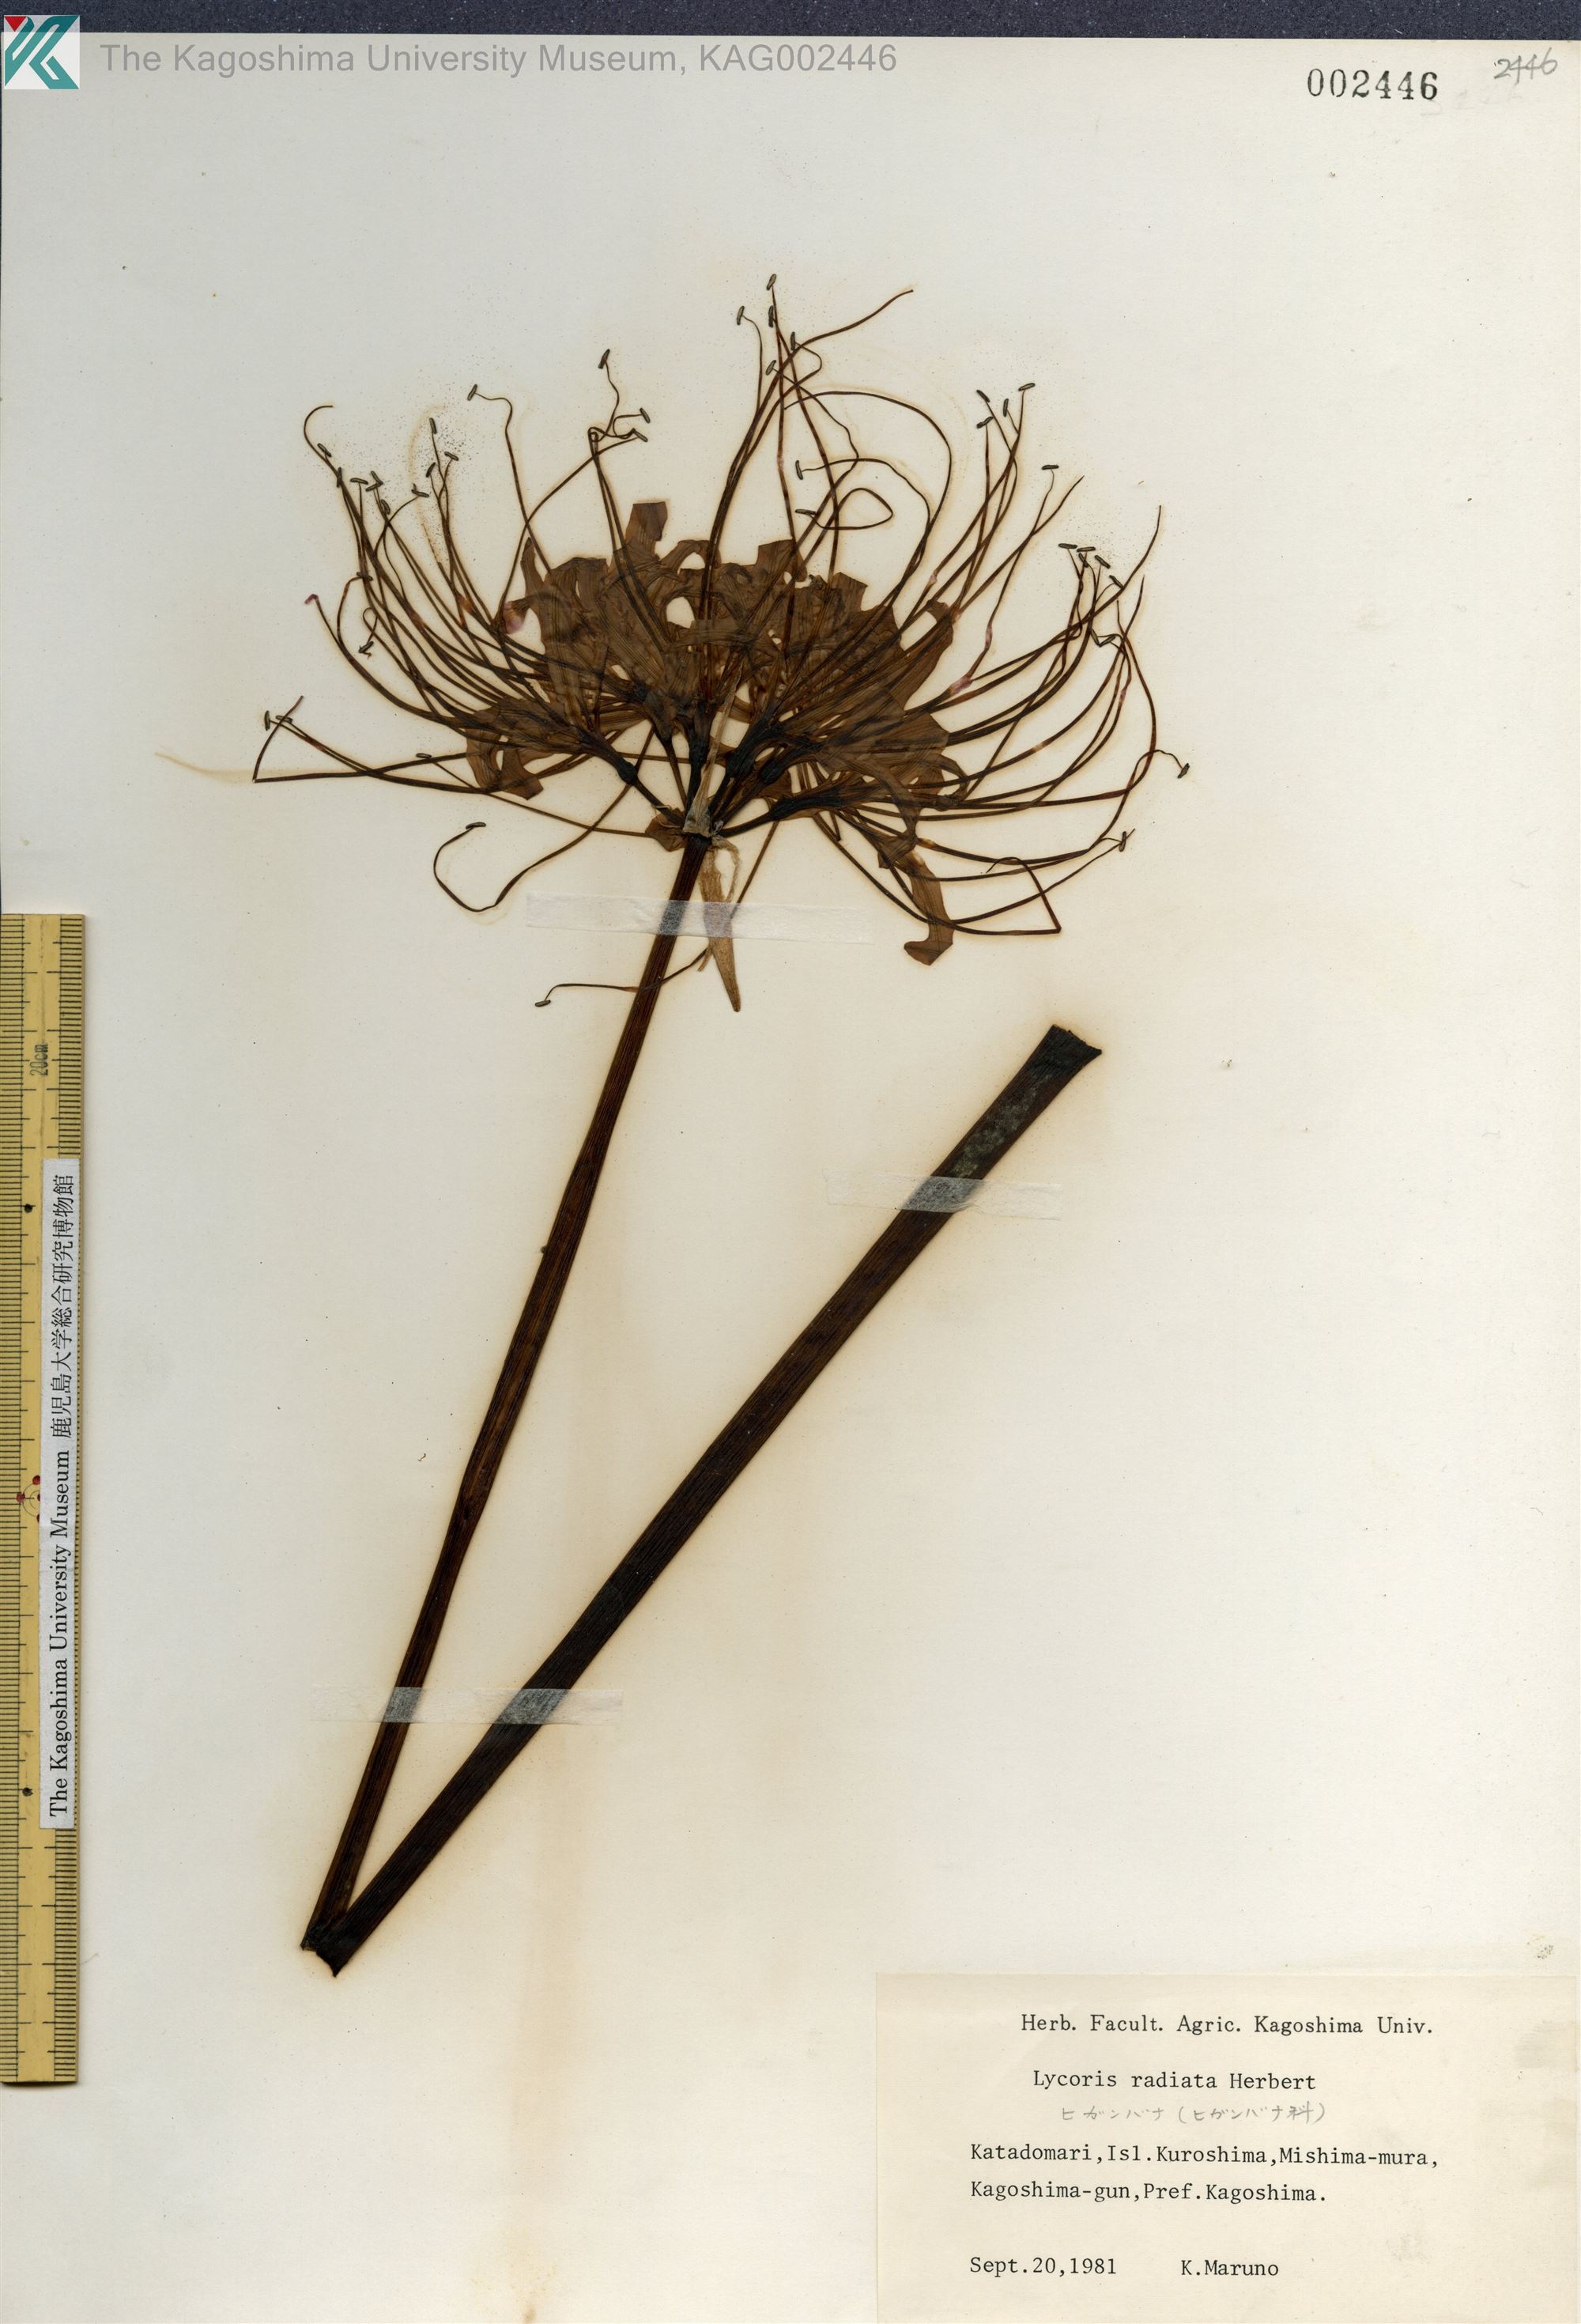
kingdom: Plantae
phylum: Tracheophyta
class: Liliopsida
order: Asparagales
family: Amaryllidaceae
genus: Lycoris
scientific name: Lycoris radiata
